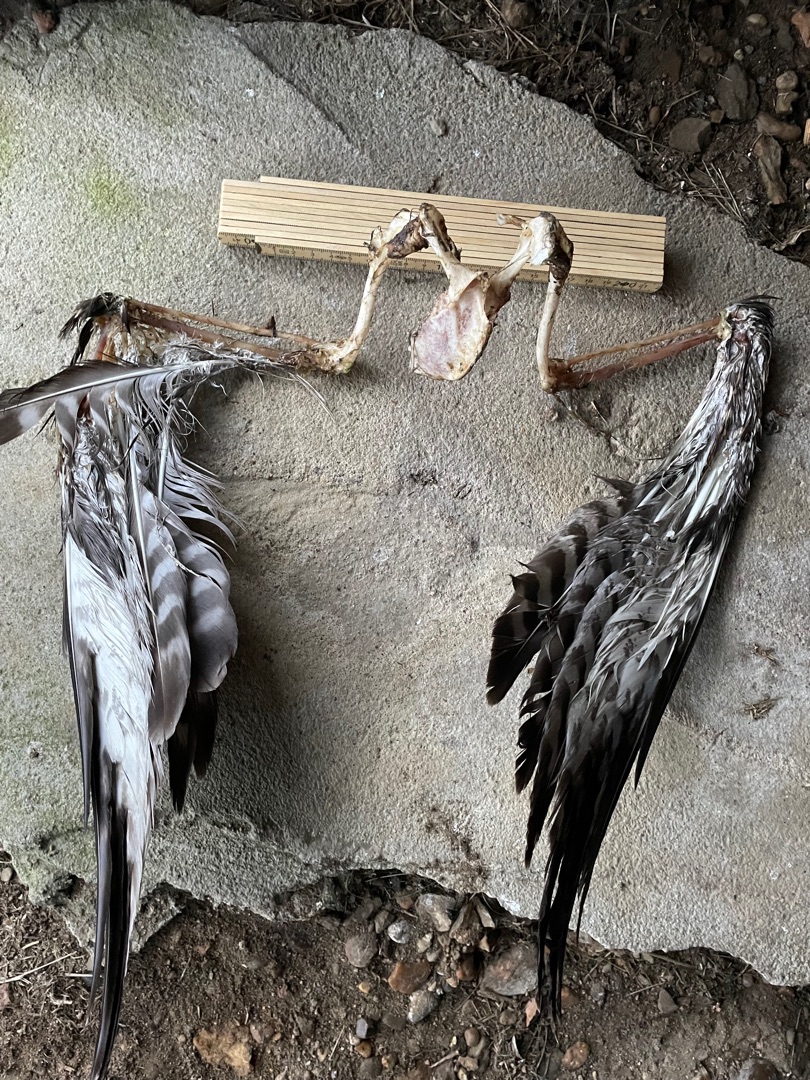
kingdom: Animalia
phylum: Chordata
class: Aves
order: Accipitriformes
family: Accipitridae
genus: Buteo
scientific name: Buteo buteo
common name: Musvåge
